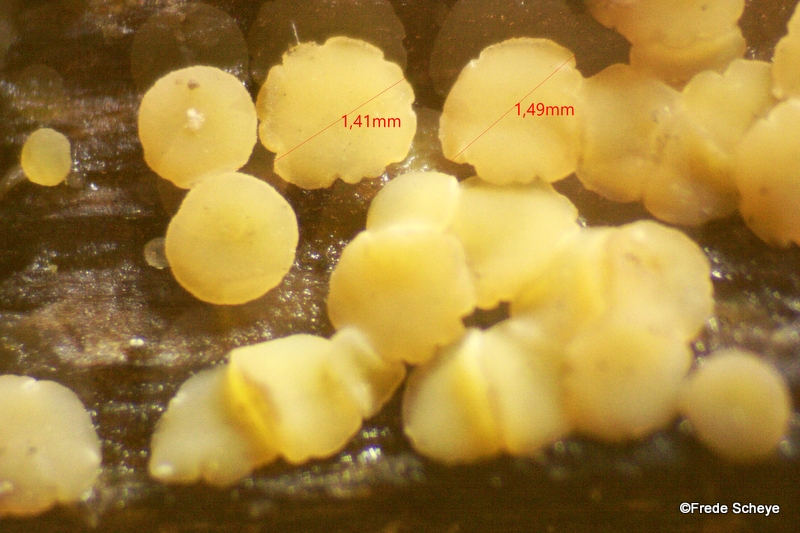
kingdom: Fungi
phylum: Ascomycota
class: Leotiomycetes
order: Helotiales
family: Helotiaceae
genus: Bisporella
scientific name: Bisporella subpallida
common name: lys snitskive
